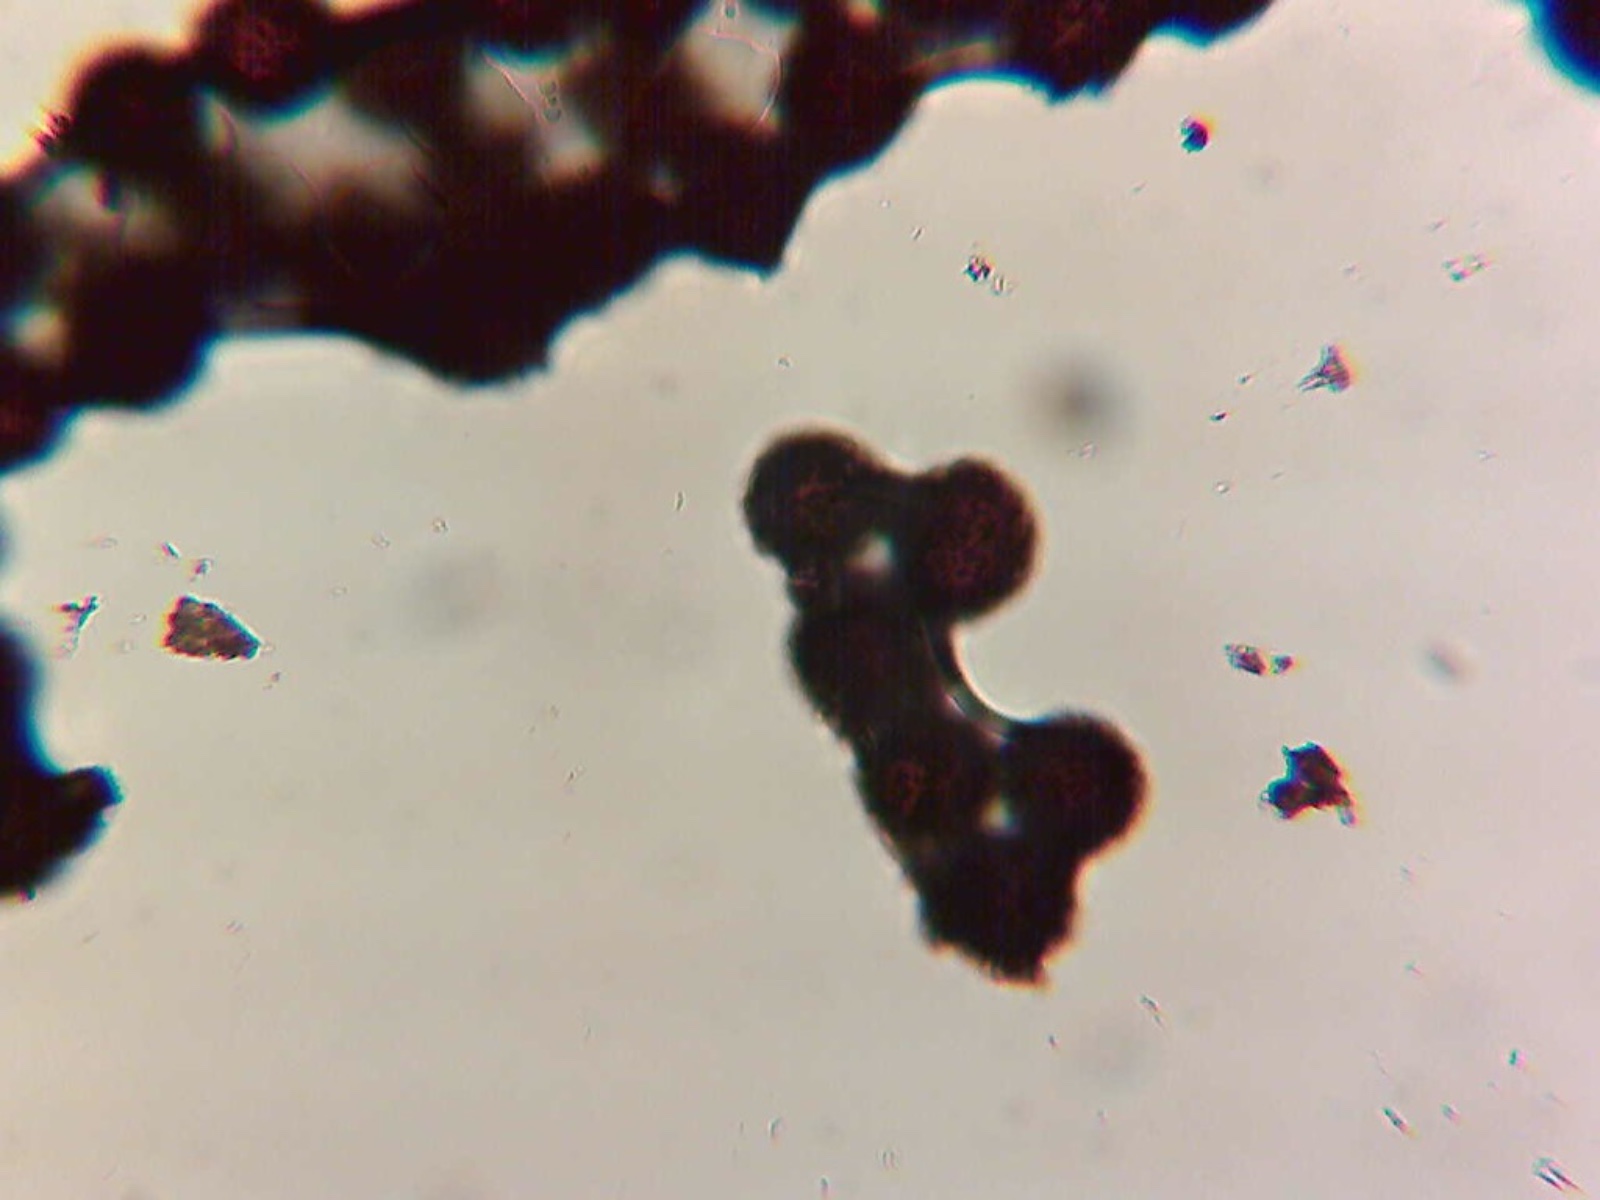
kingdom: Fungi
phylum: Ascomycota
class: Eurotiomycetes
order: Eurotiales
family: Elaphomycetaceae
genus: Elaphomyces
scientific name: Elaphomyces granulatus
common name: grynet hjortetrøffel
